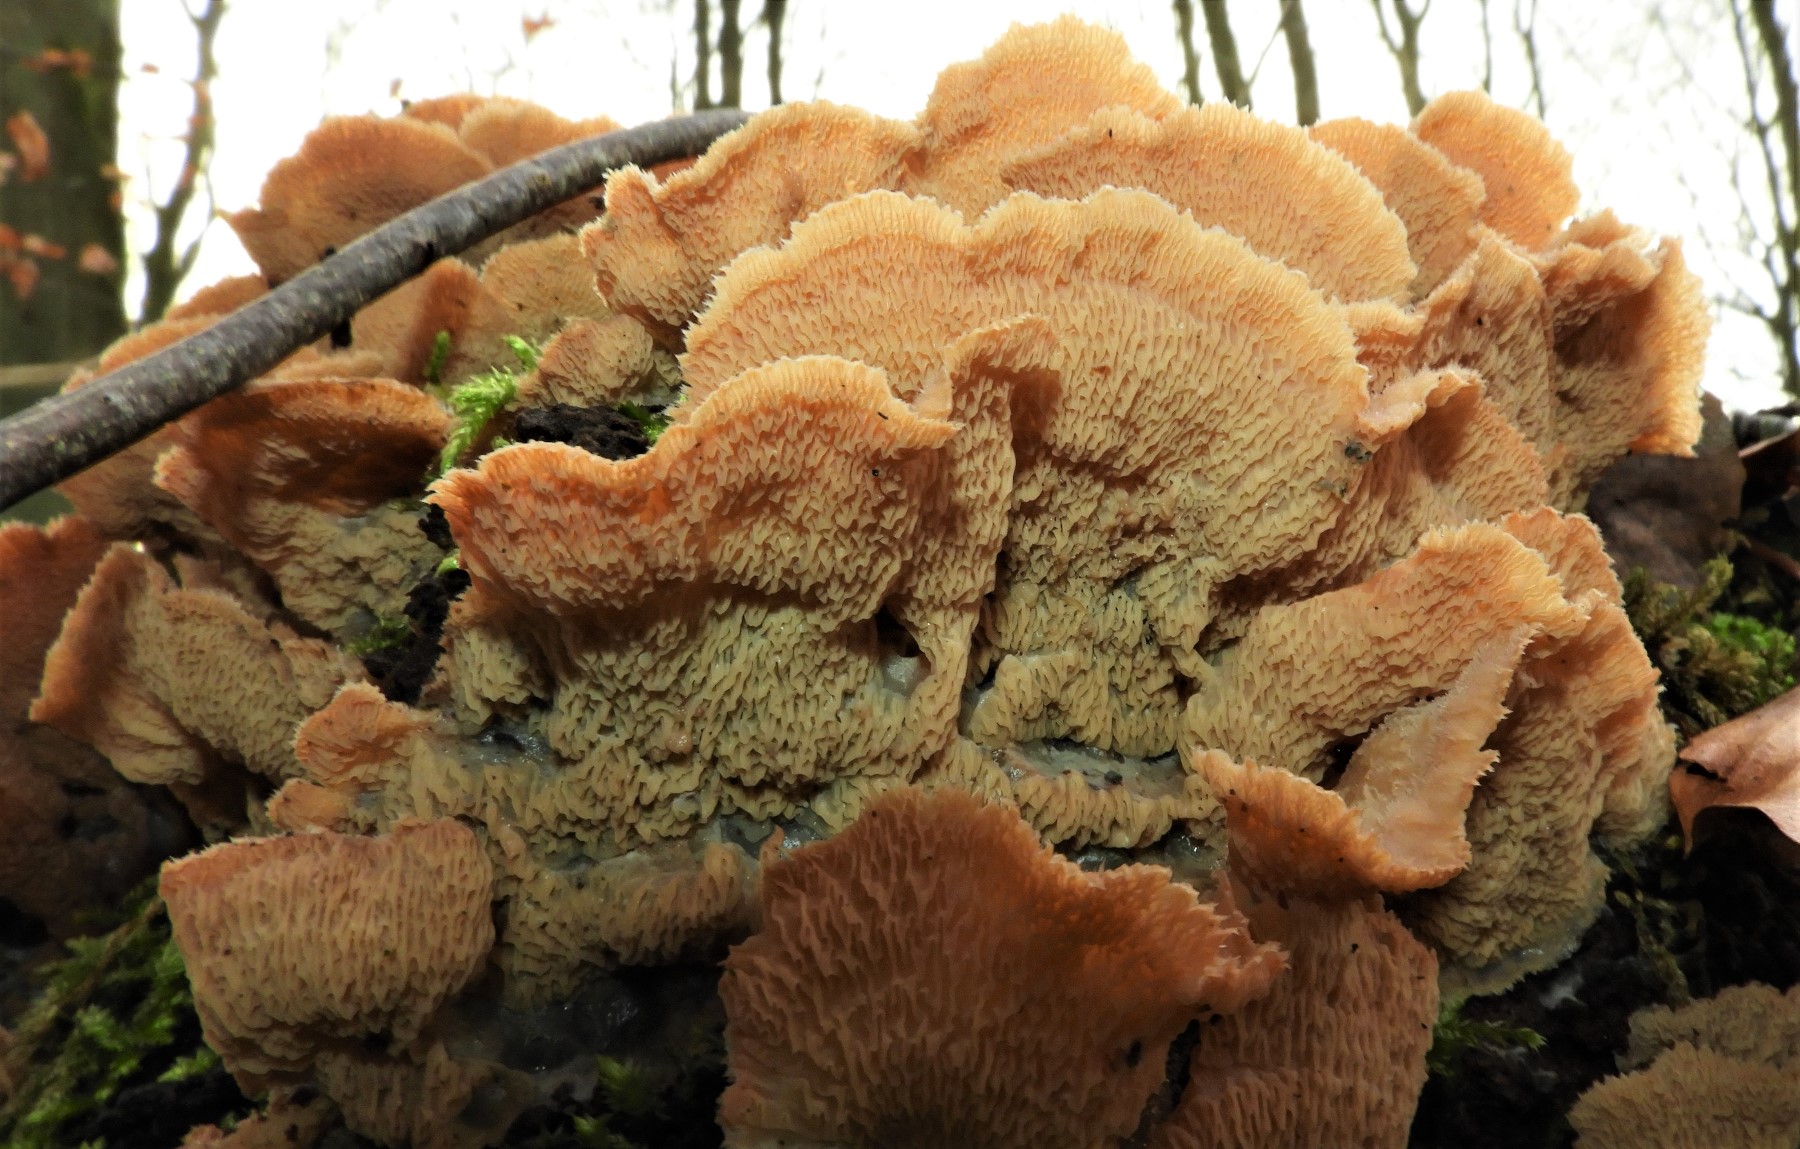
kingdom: Fungi
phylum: Basidiomycota
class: Agaricomycetes
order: Polyporales
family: Meruliaceae
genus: Phlebia
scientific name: Phlebia tremellosa
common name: bævrende åresvamp
